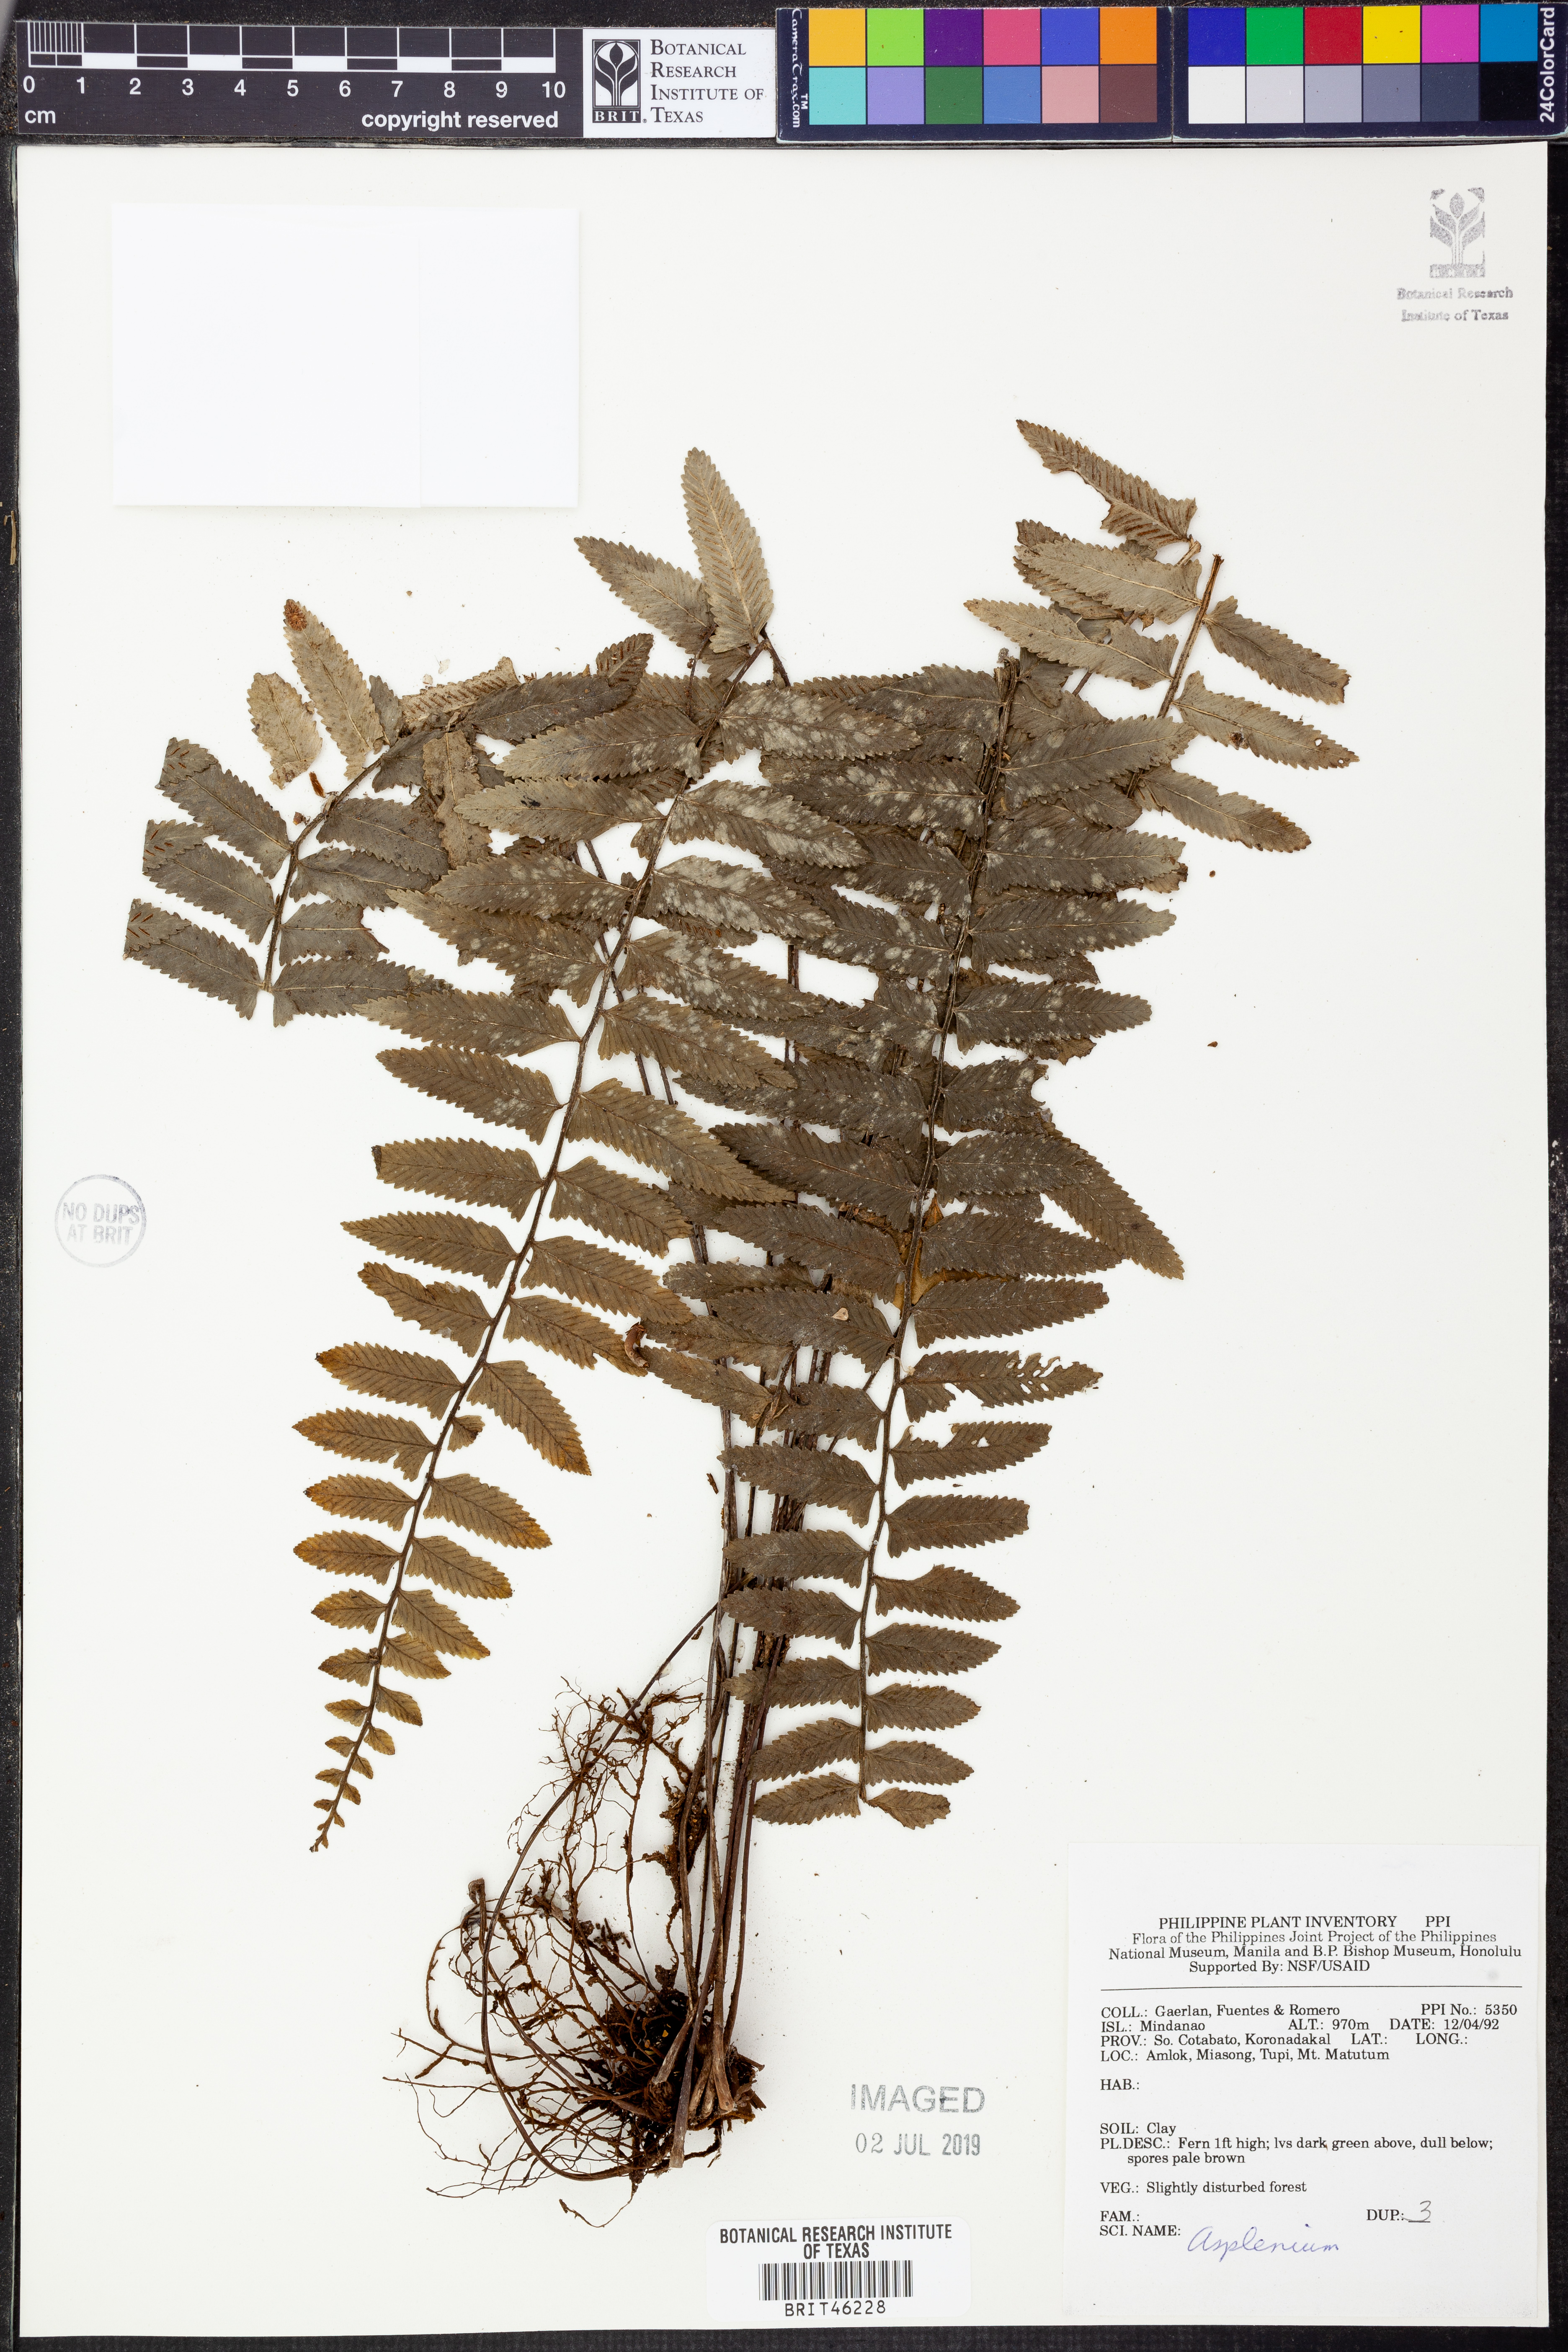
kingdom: Plantae
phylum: Tracheophyta
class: Polypodiopsida
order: Polypodiales
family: Aspleniaceae
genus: Asplenium
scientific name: Asplenium
